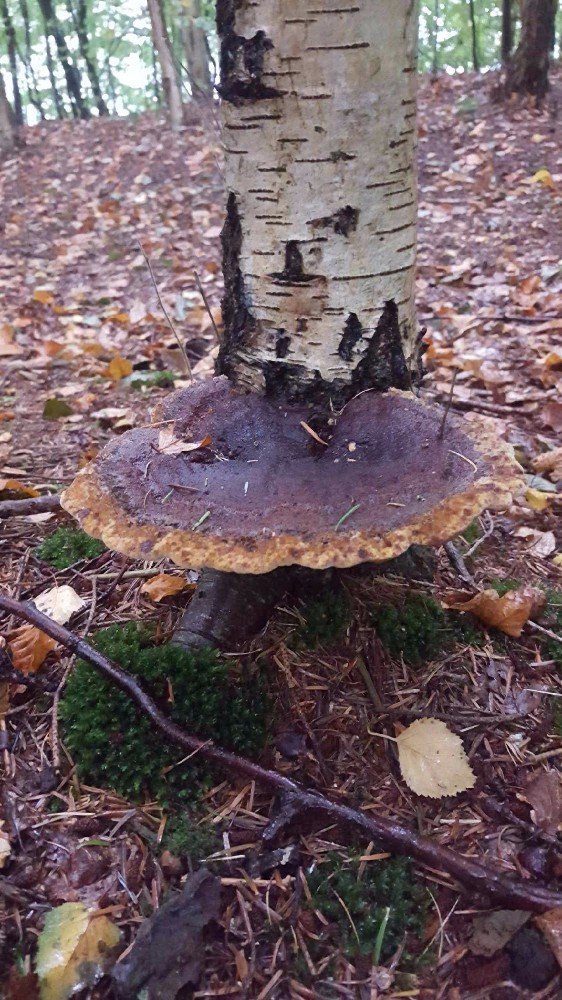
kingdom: Fungi
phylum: Basidiomycota
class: Agaricomycetes
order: Polyporales
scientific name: Polyporales
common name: poresvampordenen
